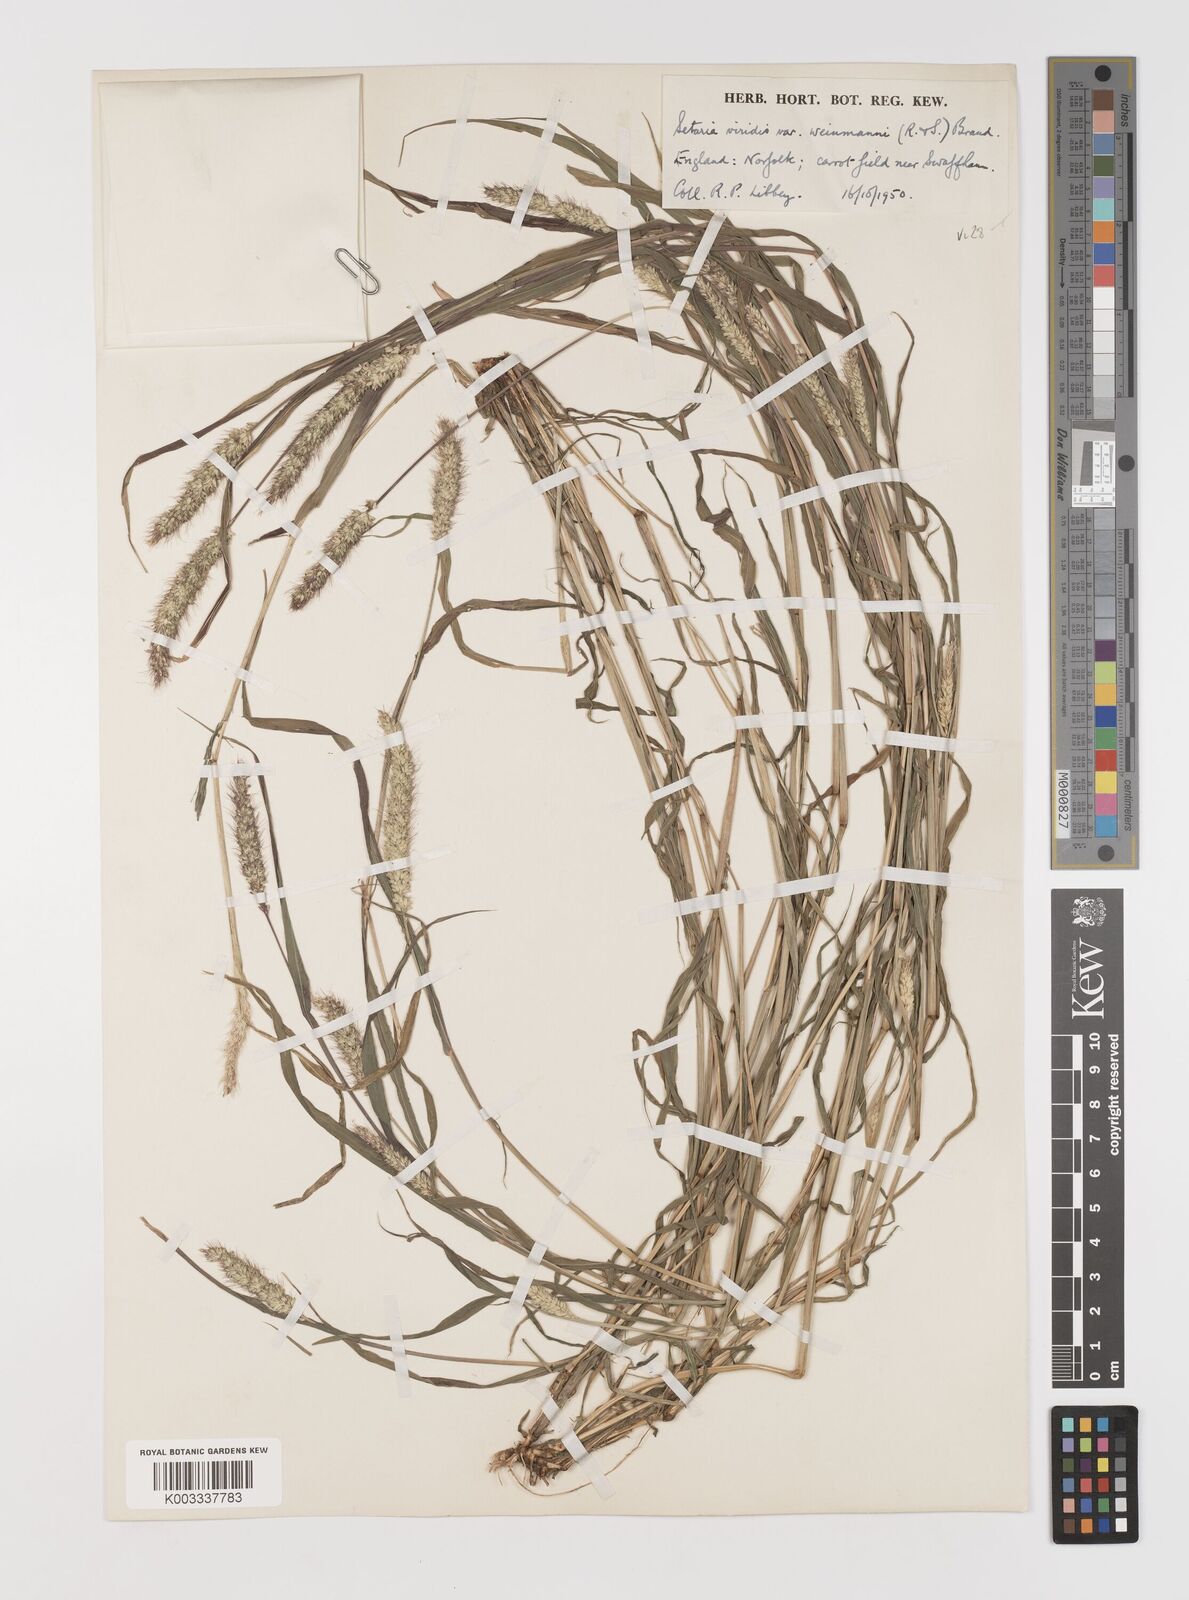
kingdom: Plantae
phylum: Tracheophyta
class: Liliopsida
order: Poales
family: Poaceae
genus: Setaria
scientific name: Setaria viridis
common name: Green bristlegrass
